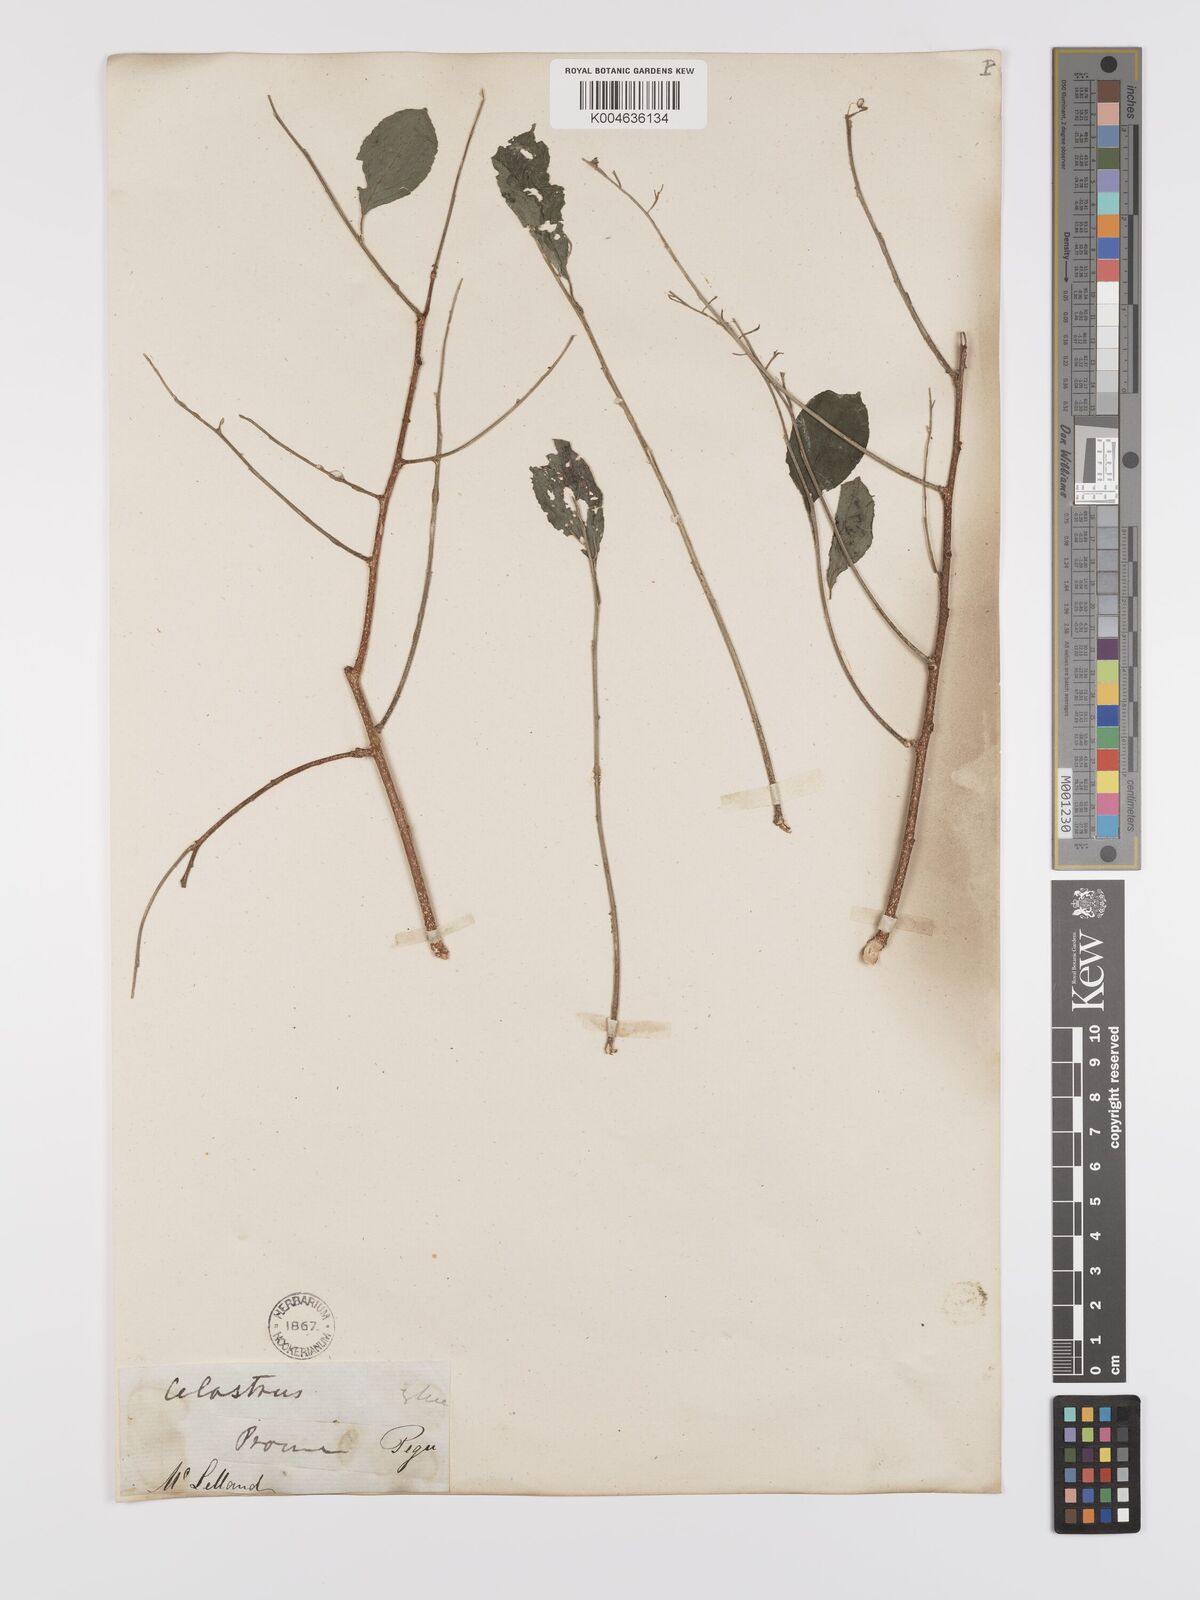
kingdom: Plantae
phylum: Tracheophyta
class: Magnoliopsida
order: Celastrales
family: Celastraceae
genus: Celastrus
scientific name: Celastrus paniculatus
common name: Oriental bittersweet; staff vine
